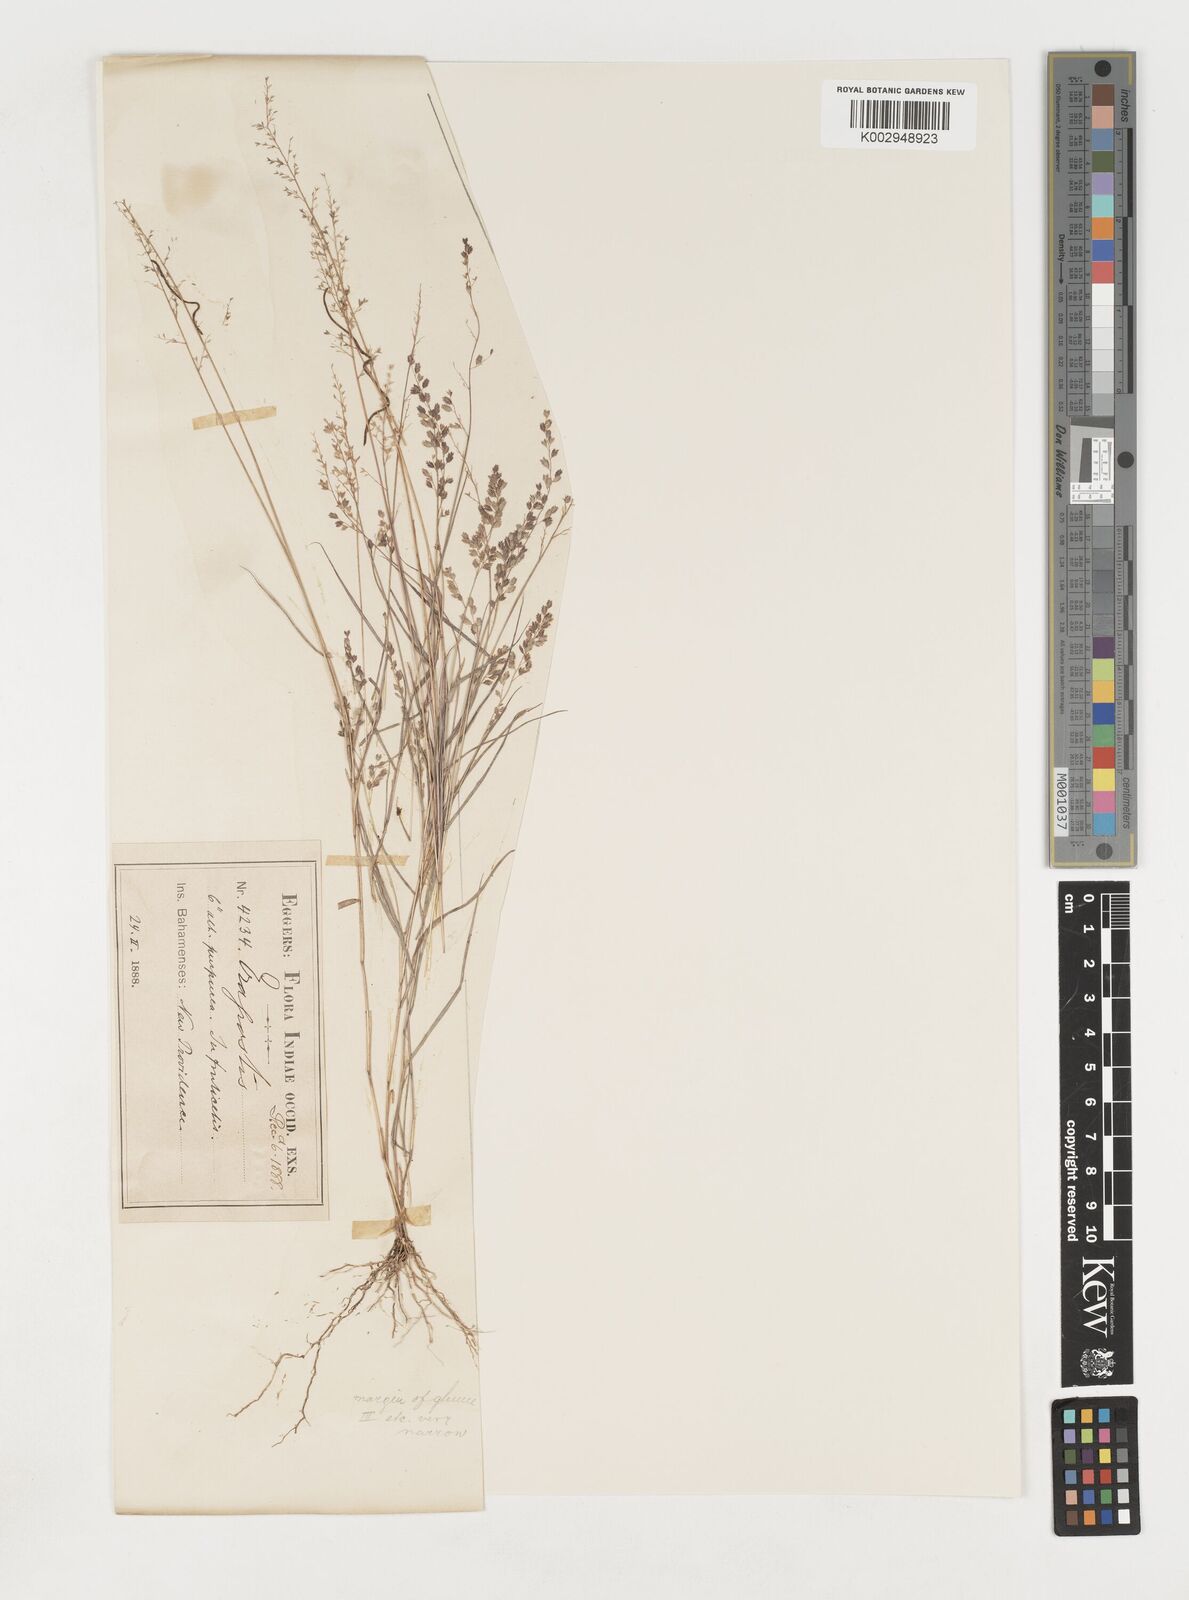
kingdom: Plantae
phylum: Tracheophyta
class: Liliopsida
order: Poales
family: Poaceae
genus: Eragrostis
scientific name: Eragrostis tenella
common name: Japanese lovegrass
